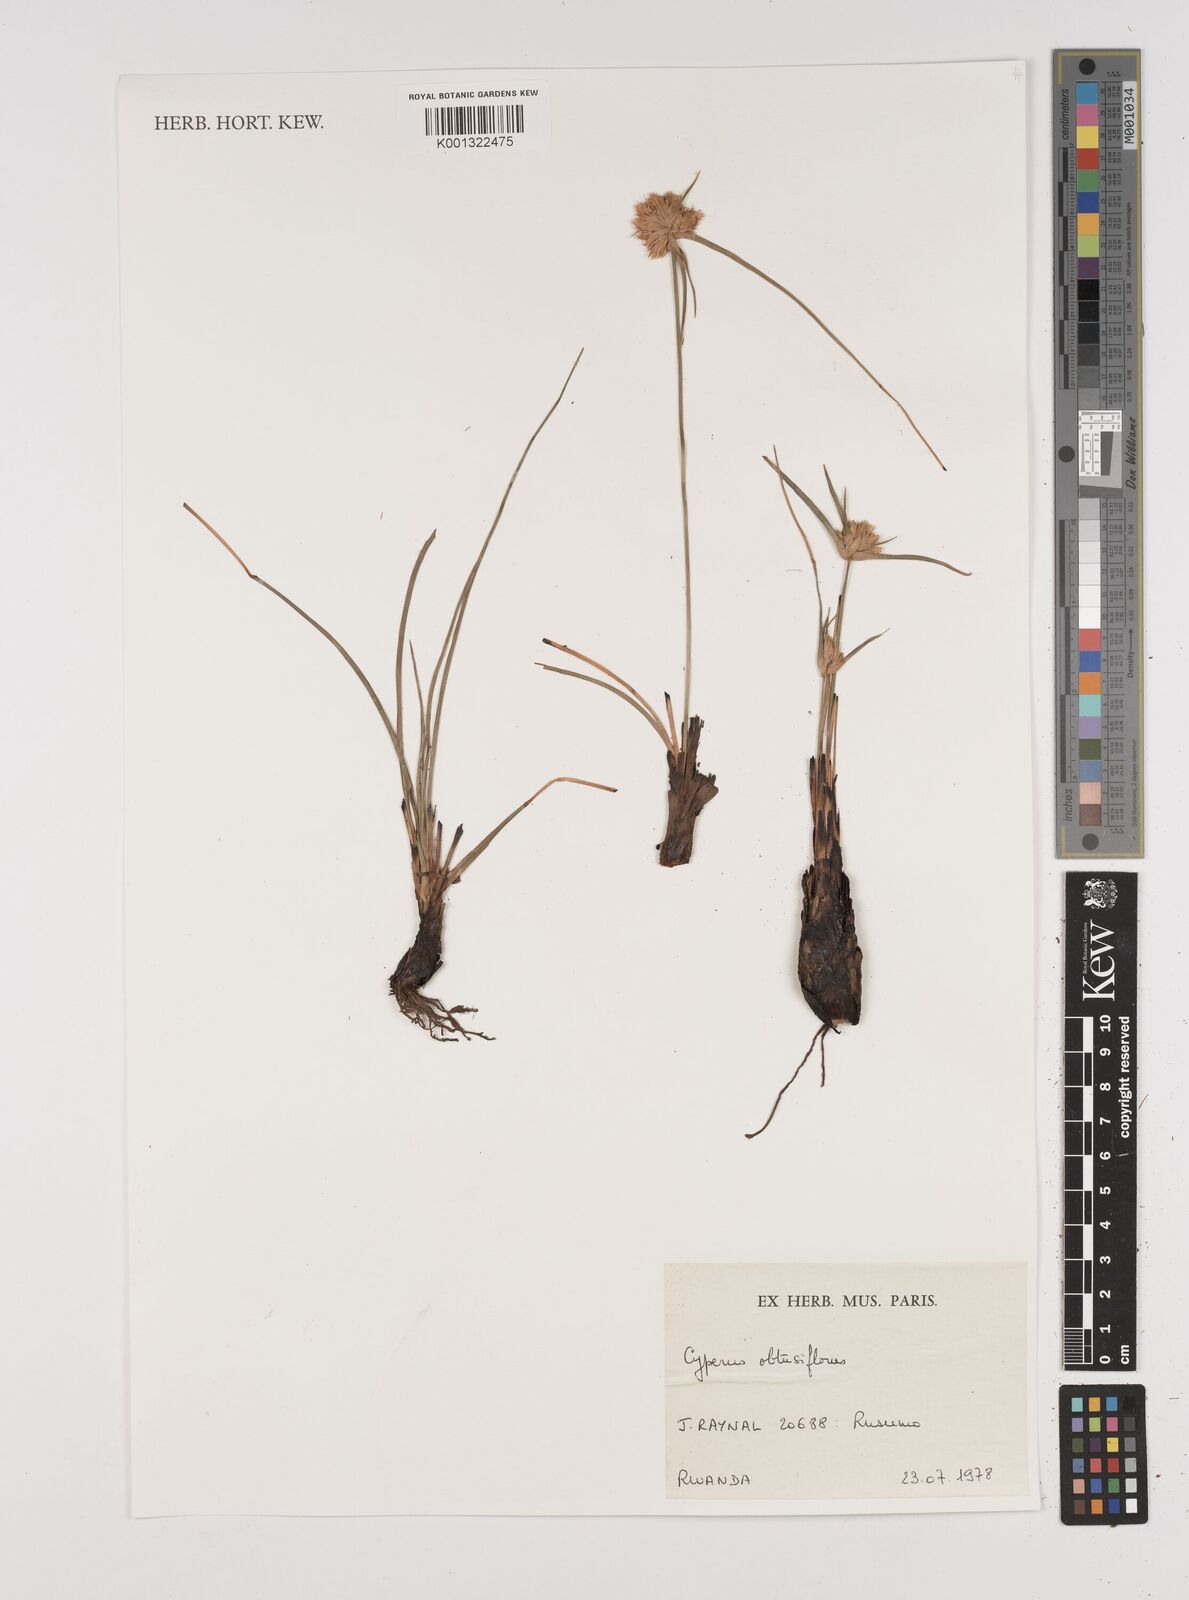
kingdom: Plantae
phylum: Tracheophyta
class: Liliopsida
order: Poales
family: Cyperaceae
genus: Cyperus
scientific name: Cyperus niveus
